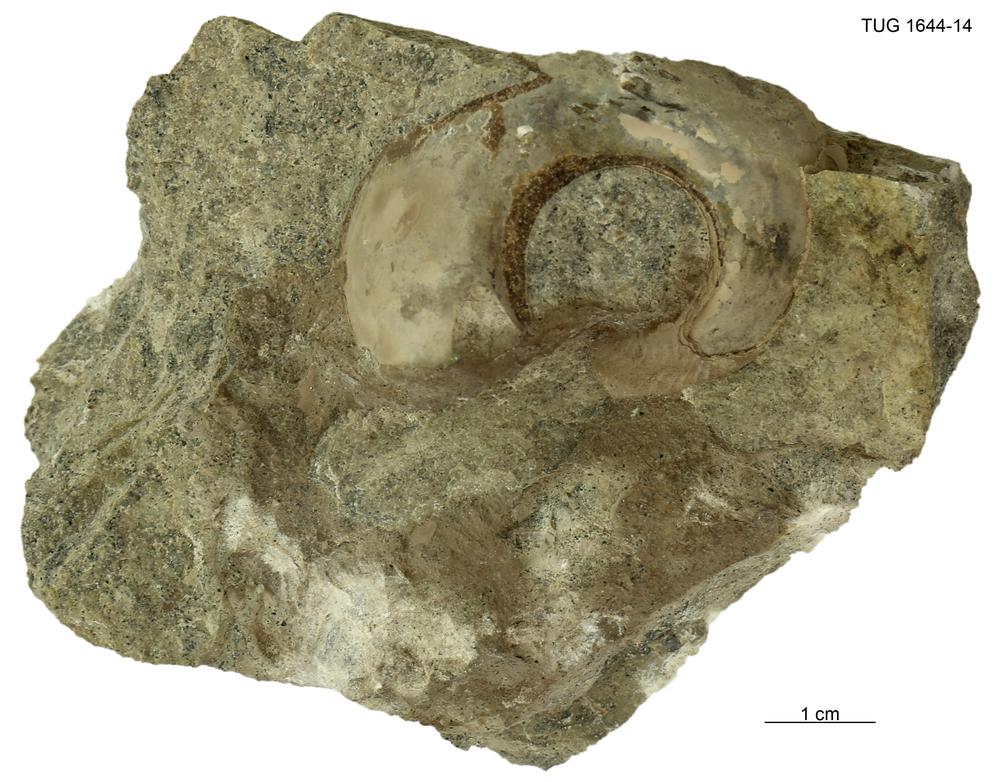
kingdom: Animalia
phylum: Mollusca
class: Gastropoda
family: Lesueurillidae
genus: Pararaphistoma
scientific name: Pararaphistoma Helicites qualteriata
